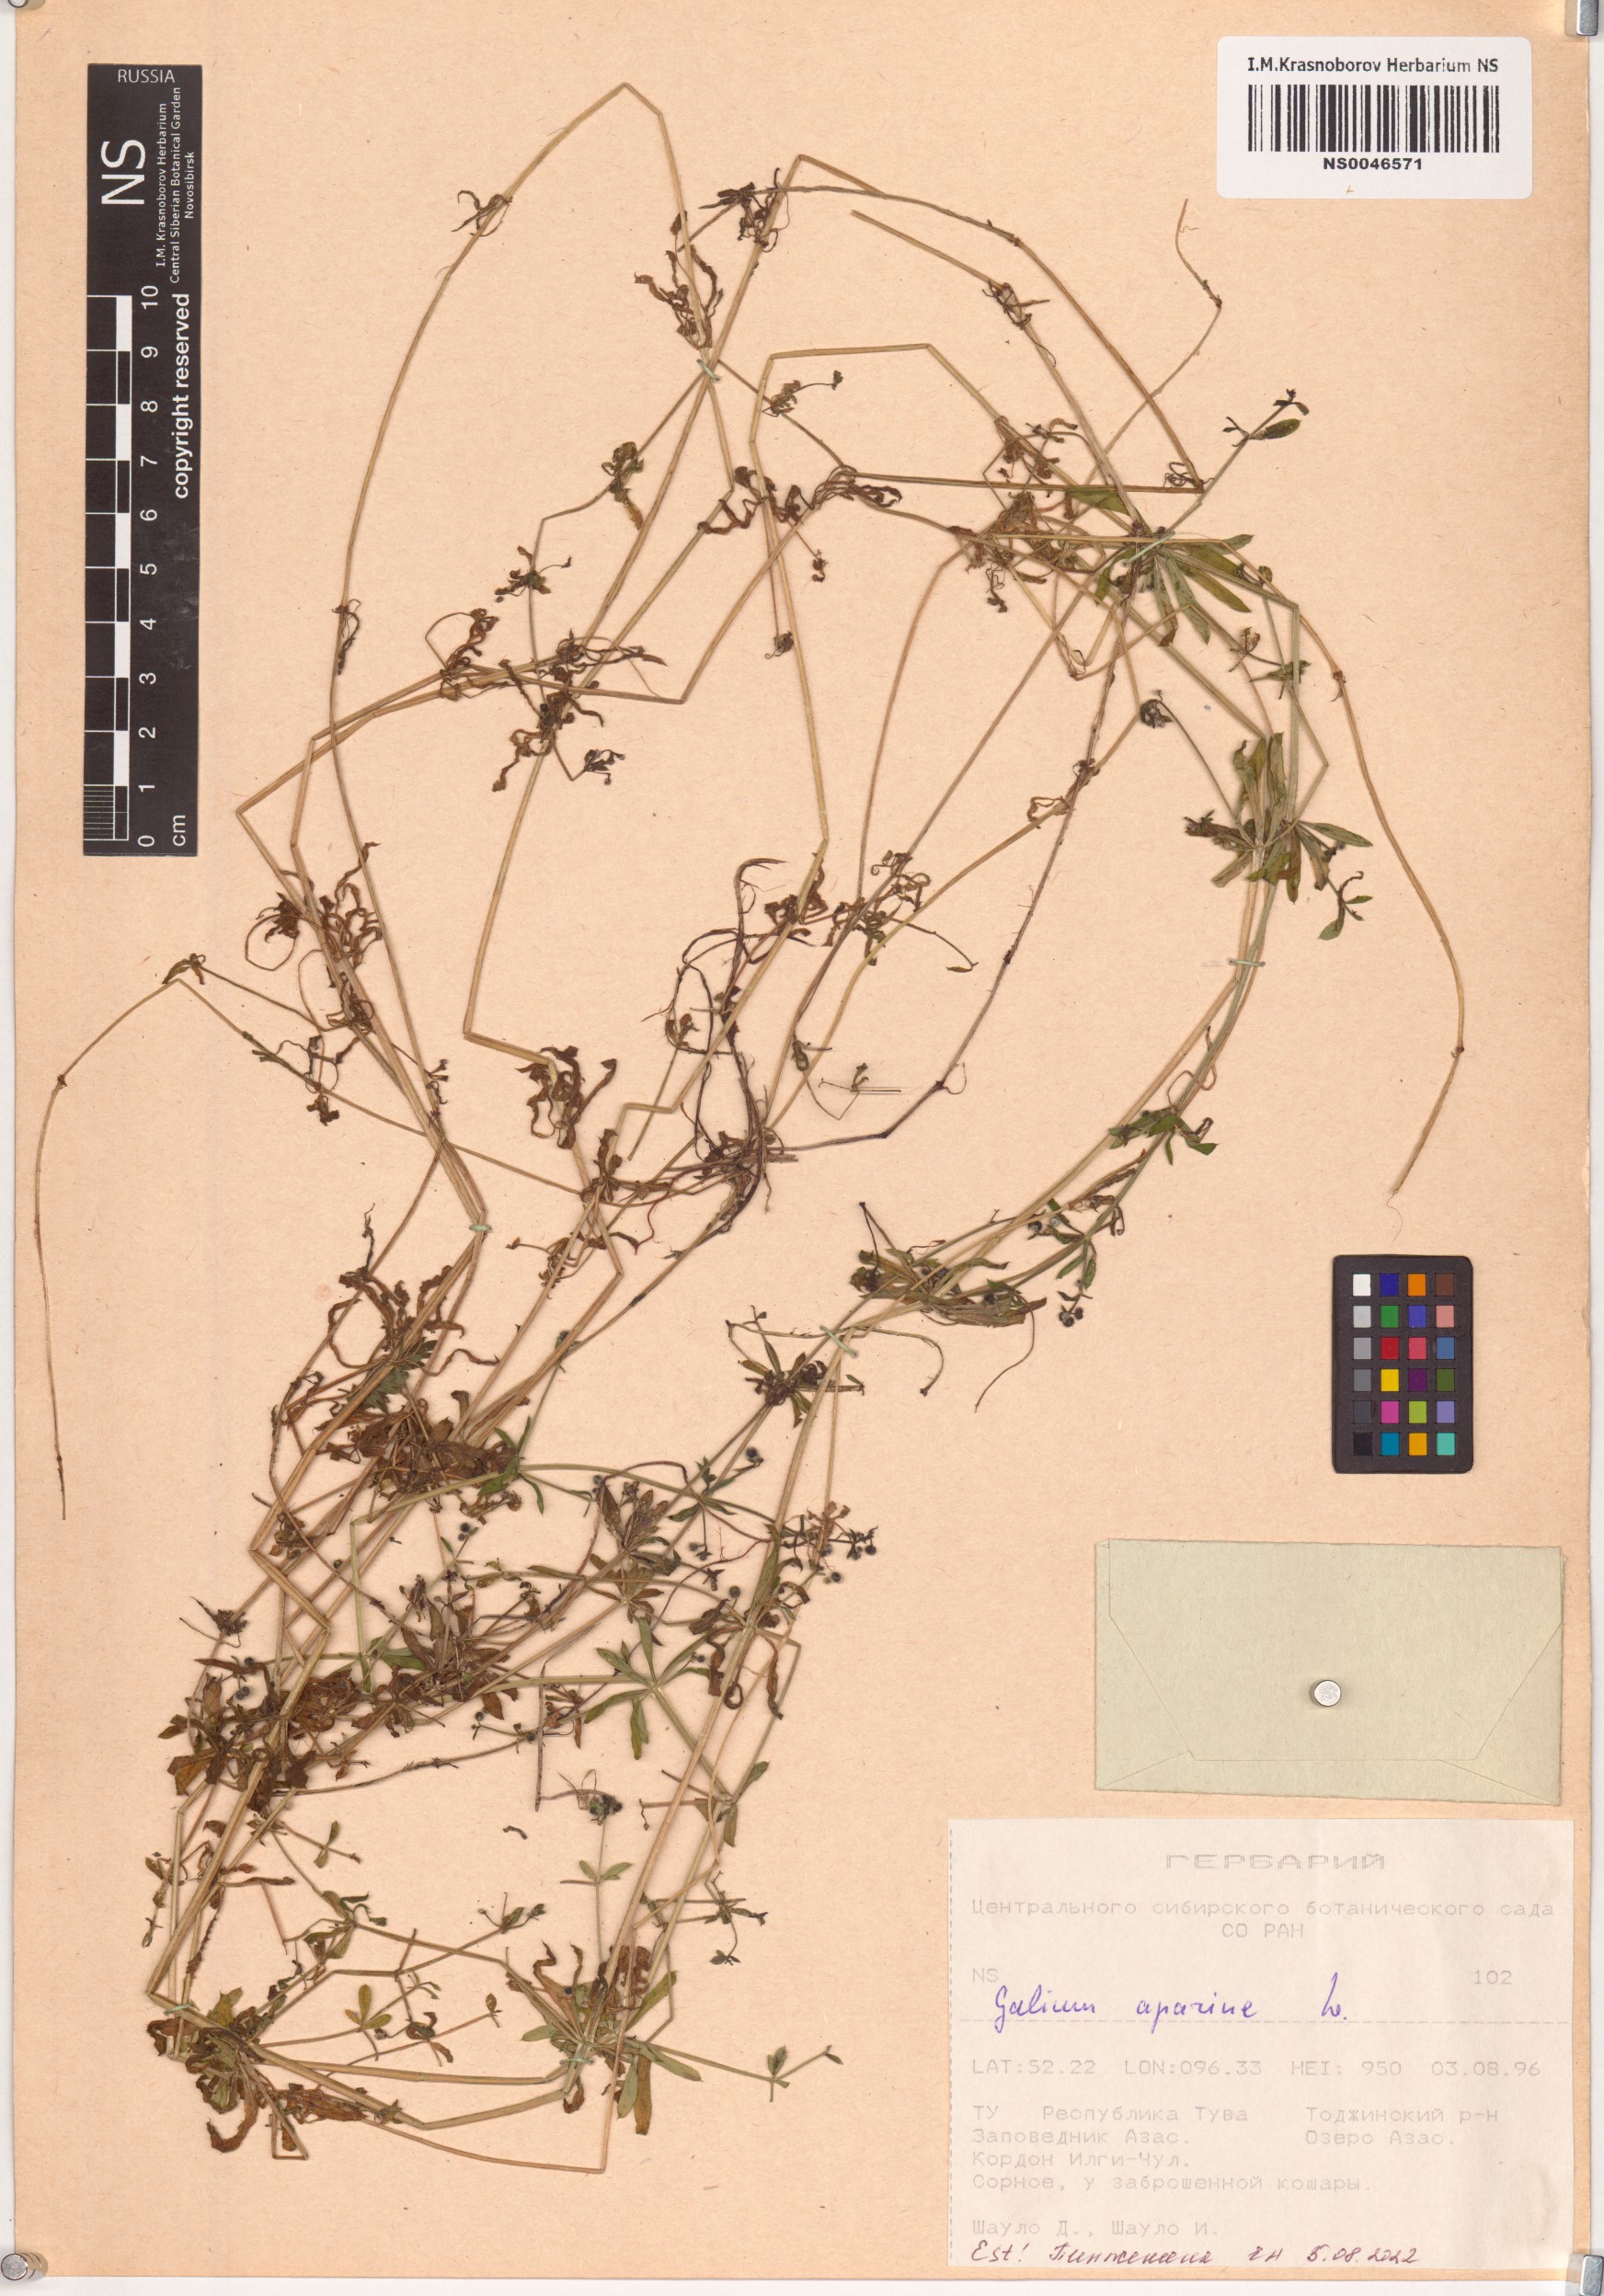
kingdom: Plantae
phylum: Tracheophyta
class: Magnoliopsida
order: Gentianales
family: Rubiaceae
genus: Galium
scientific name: Galium aparine
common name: Cleavers
